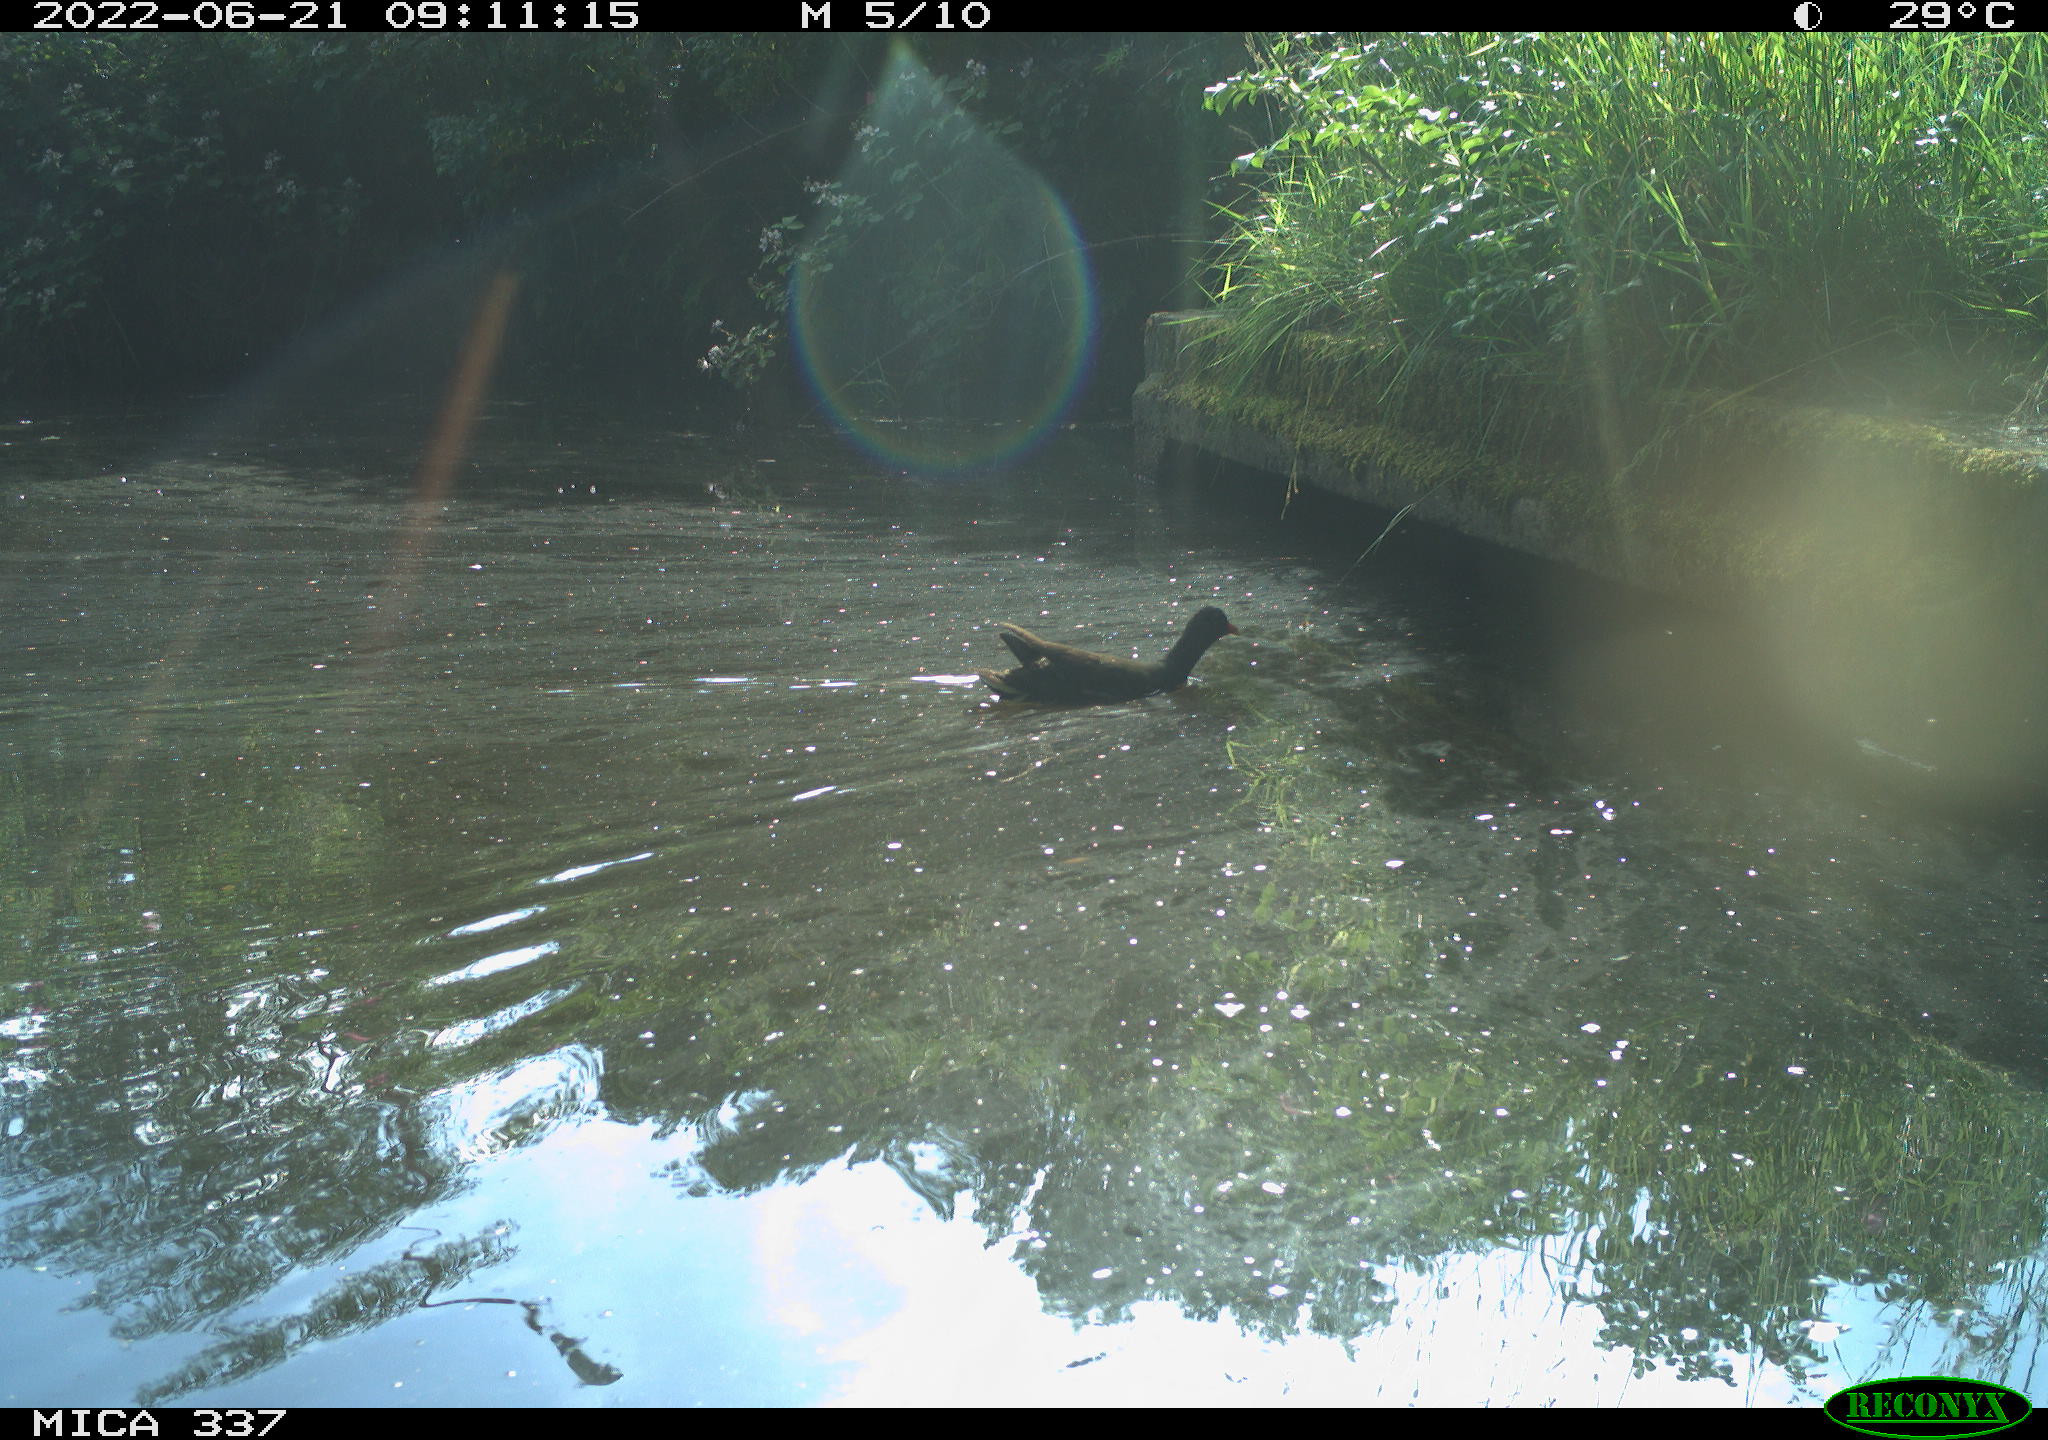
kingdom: Animalia
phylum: Chordata
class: Aves
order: Gruiformes
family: Rallidae
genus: Gallinula
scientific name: Gallinula chloropus
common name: Common moorhen
